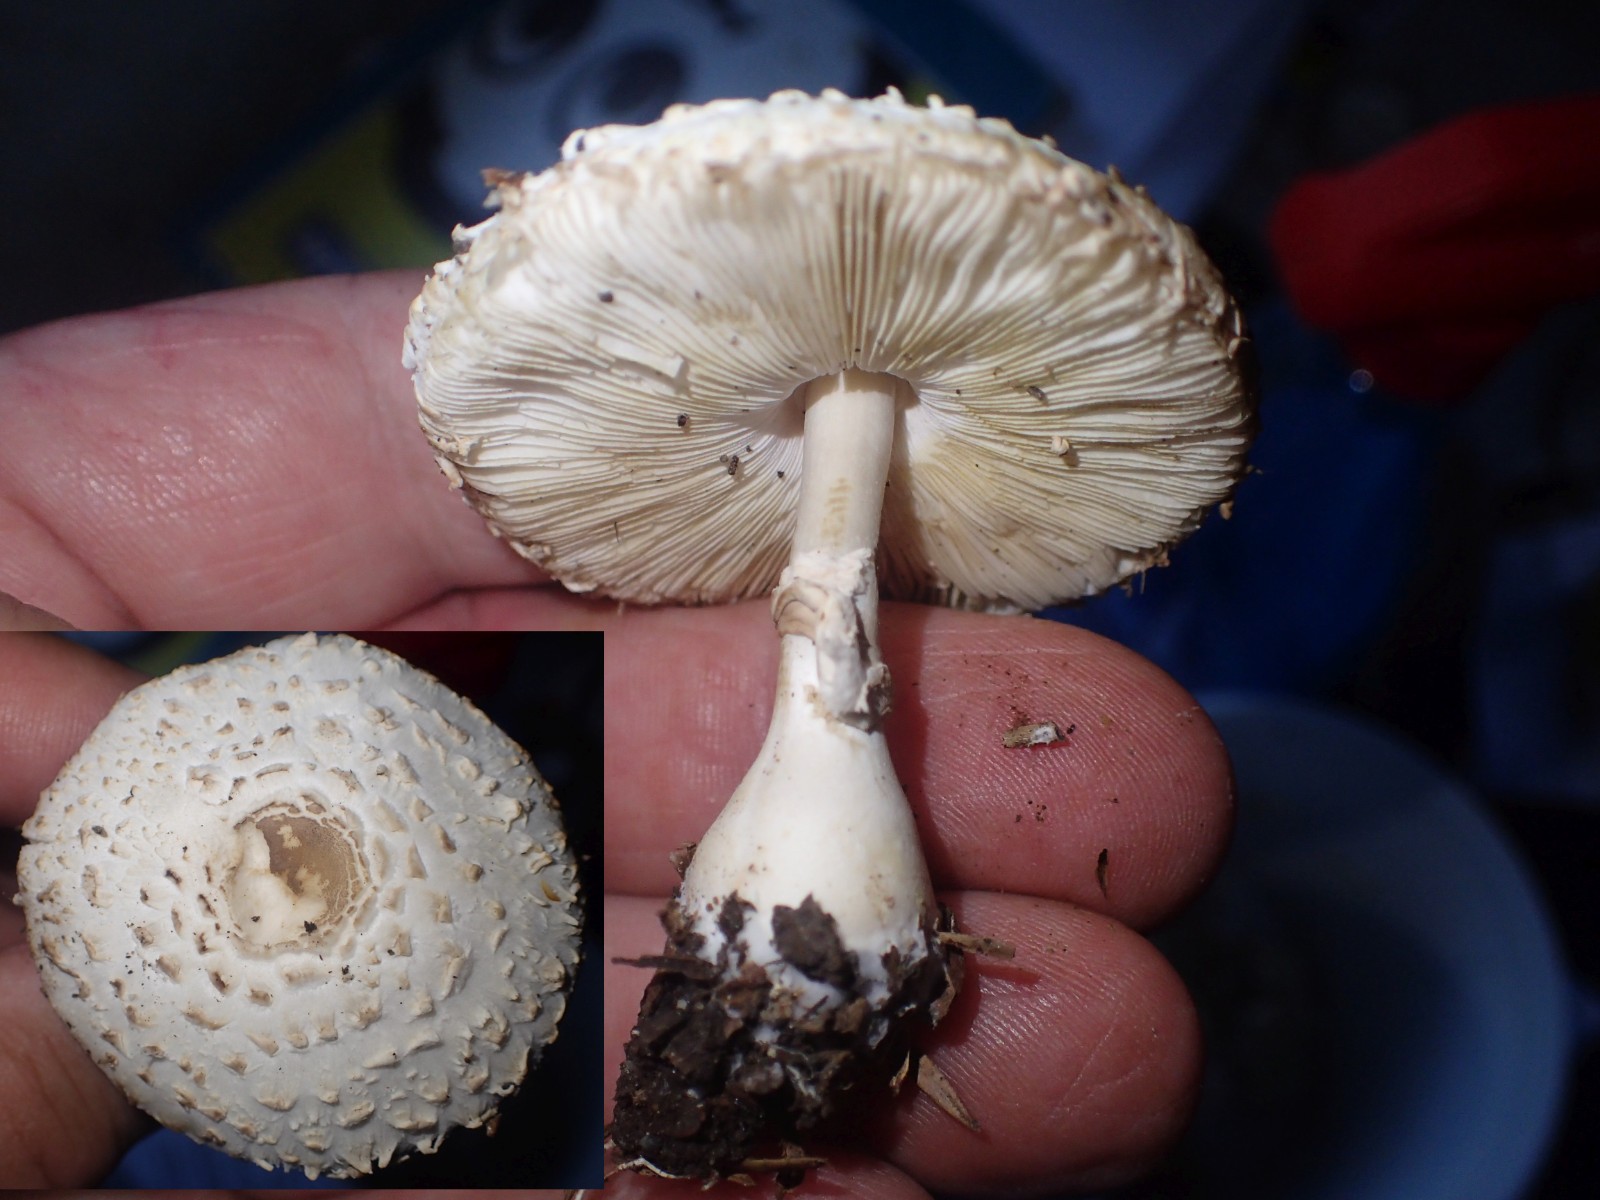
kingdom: Fungi
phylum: Basidiomycota
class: Agaricomycetes
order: Agaricales
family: Agaricaceae
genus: Leucoagaricus
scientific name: Leucoagaricus nympharum
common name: gran-silkehat
